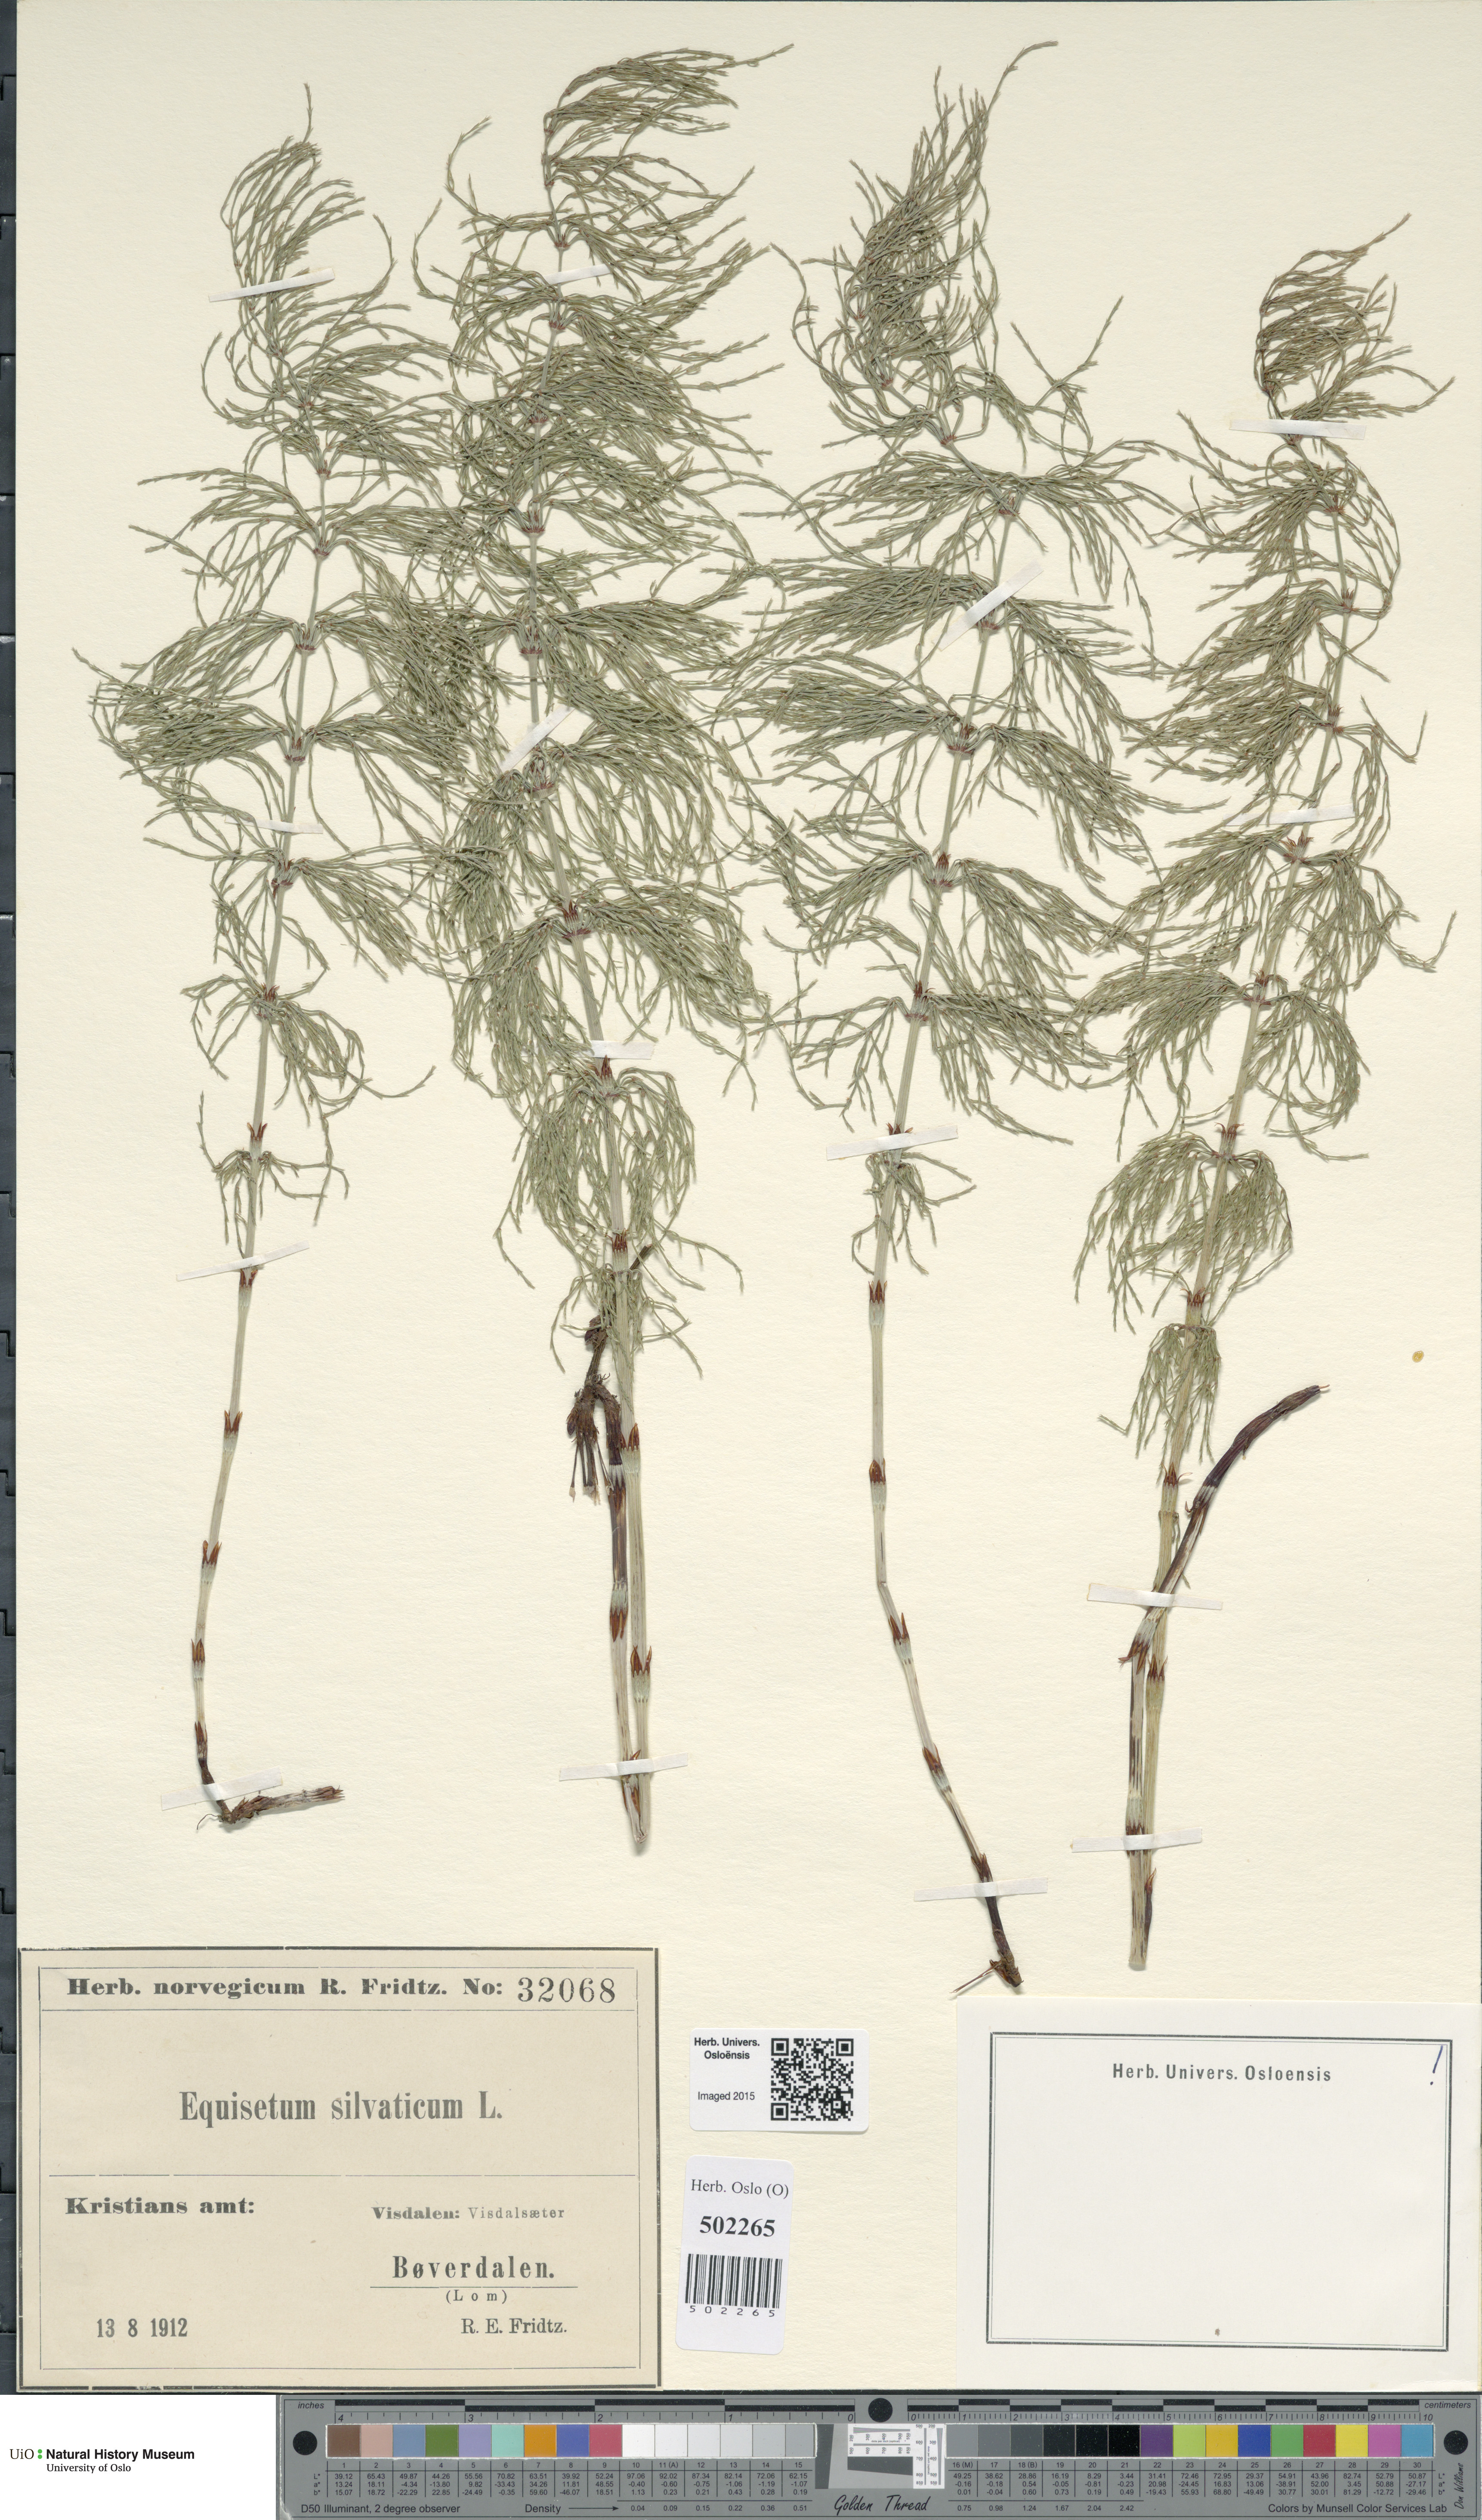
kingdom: Plantae
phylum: Tracheophyta
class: Polypodiopsida
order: Equisetales
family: Equisetaceae
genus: Equisetum
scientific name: Equisetum sylvaticum
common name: Wood horsetail
